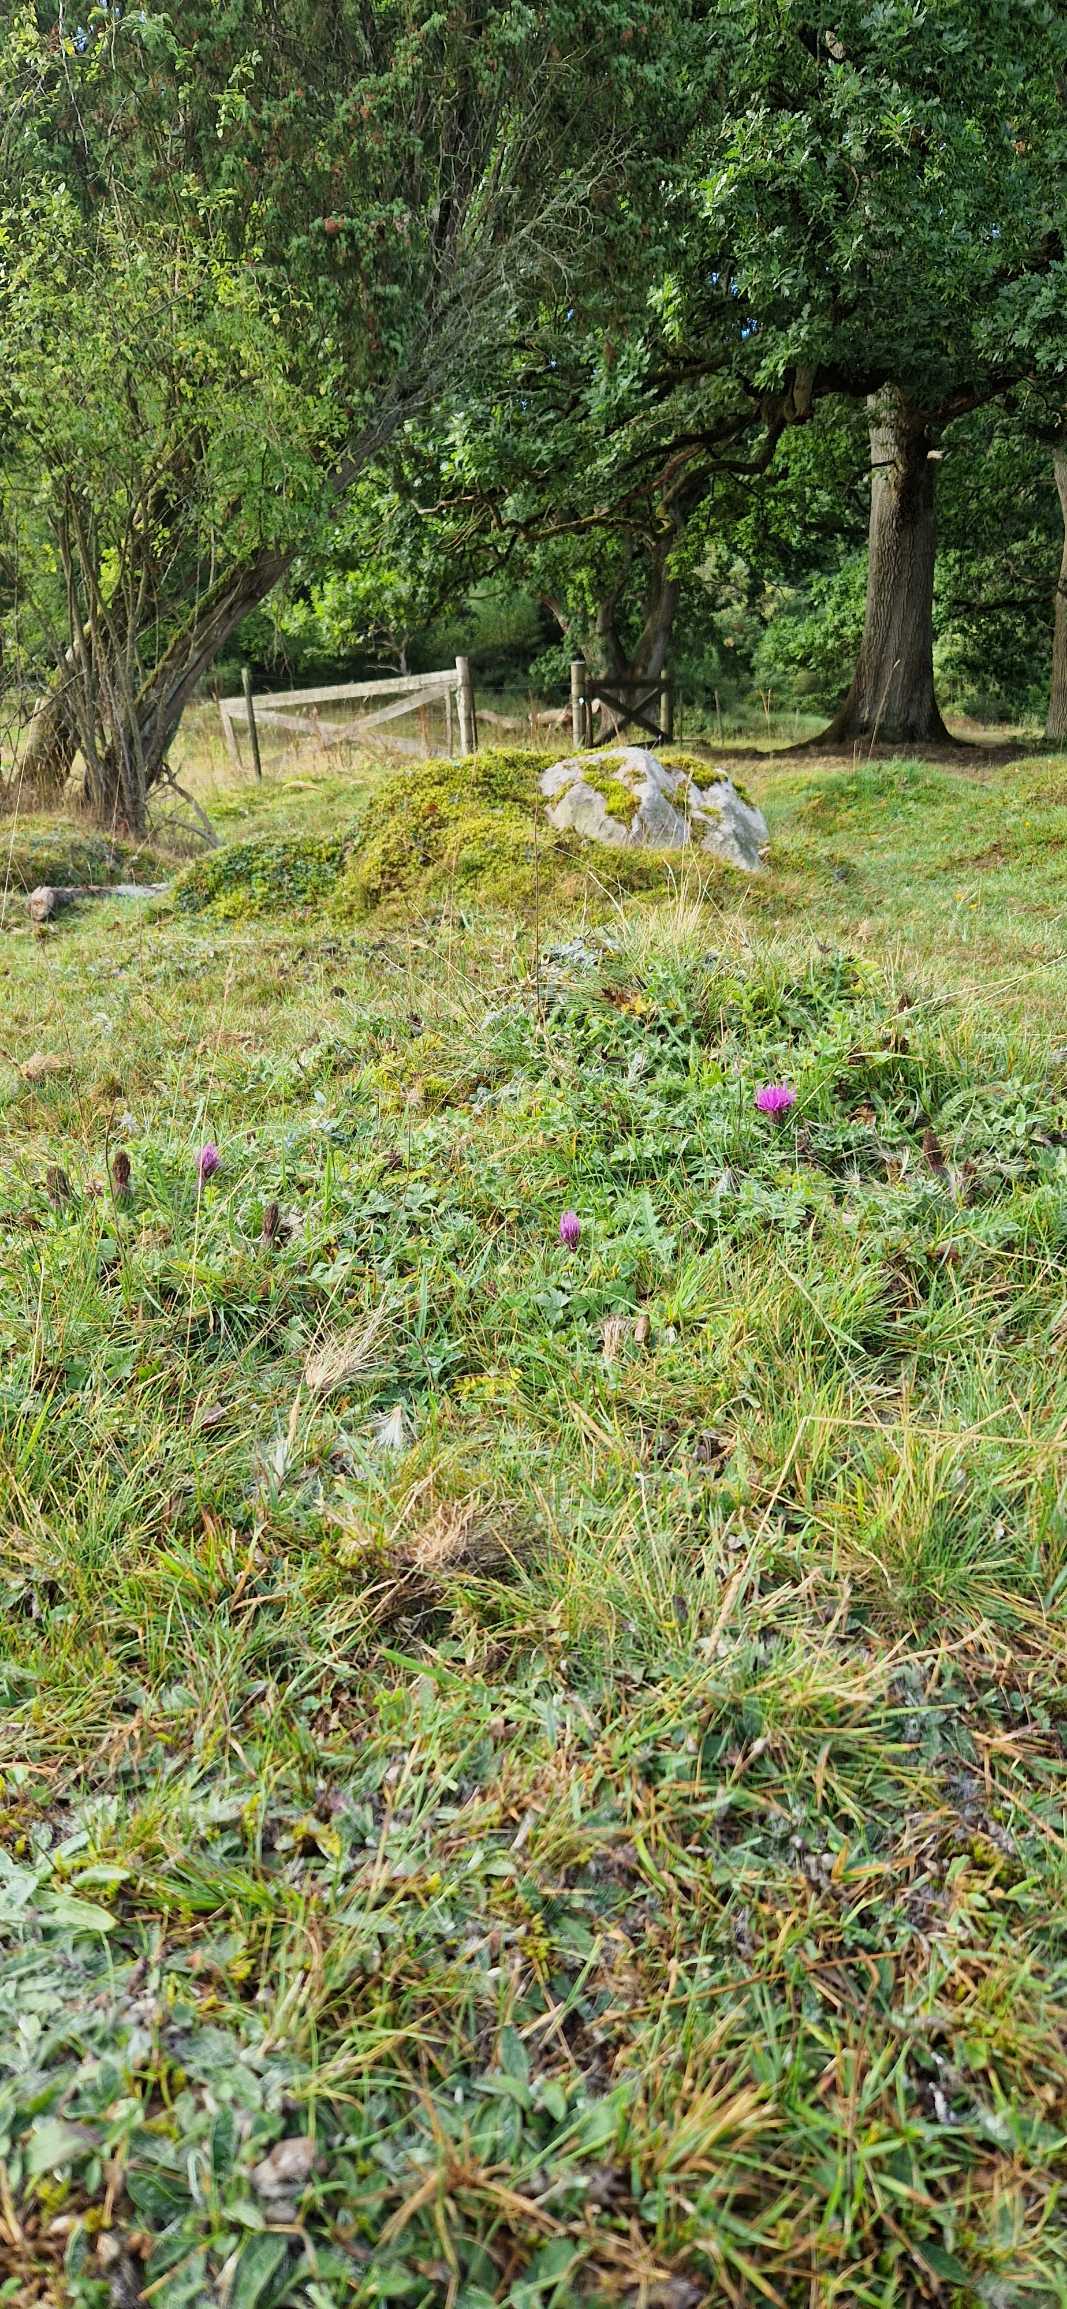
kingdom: Plantae
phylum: Tracheophyta
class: Magnoliopsida
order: Asterales
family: Asteraceae
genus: Cirsium
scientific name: Cirsium acaule
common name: Lav tidsel
